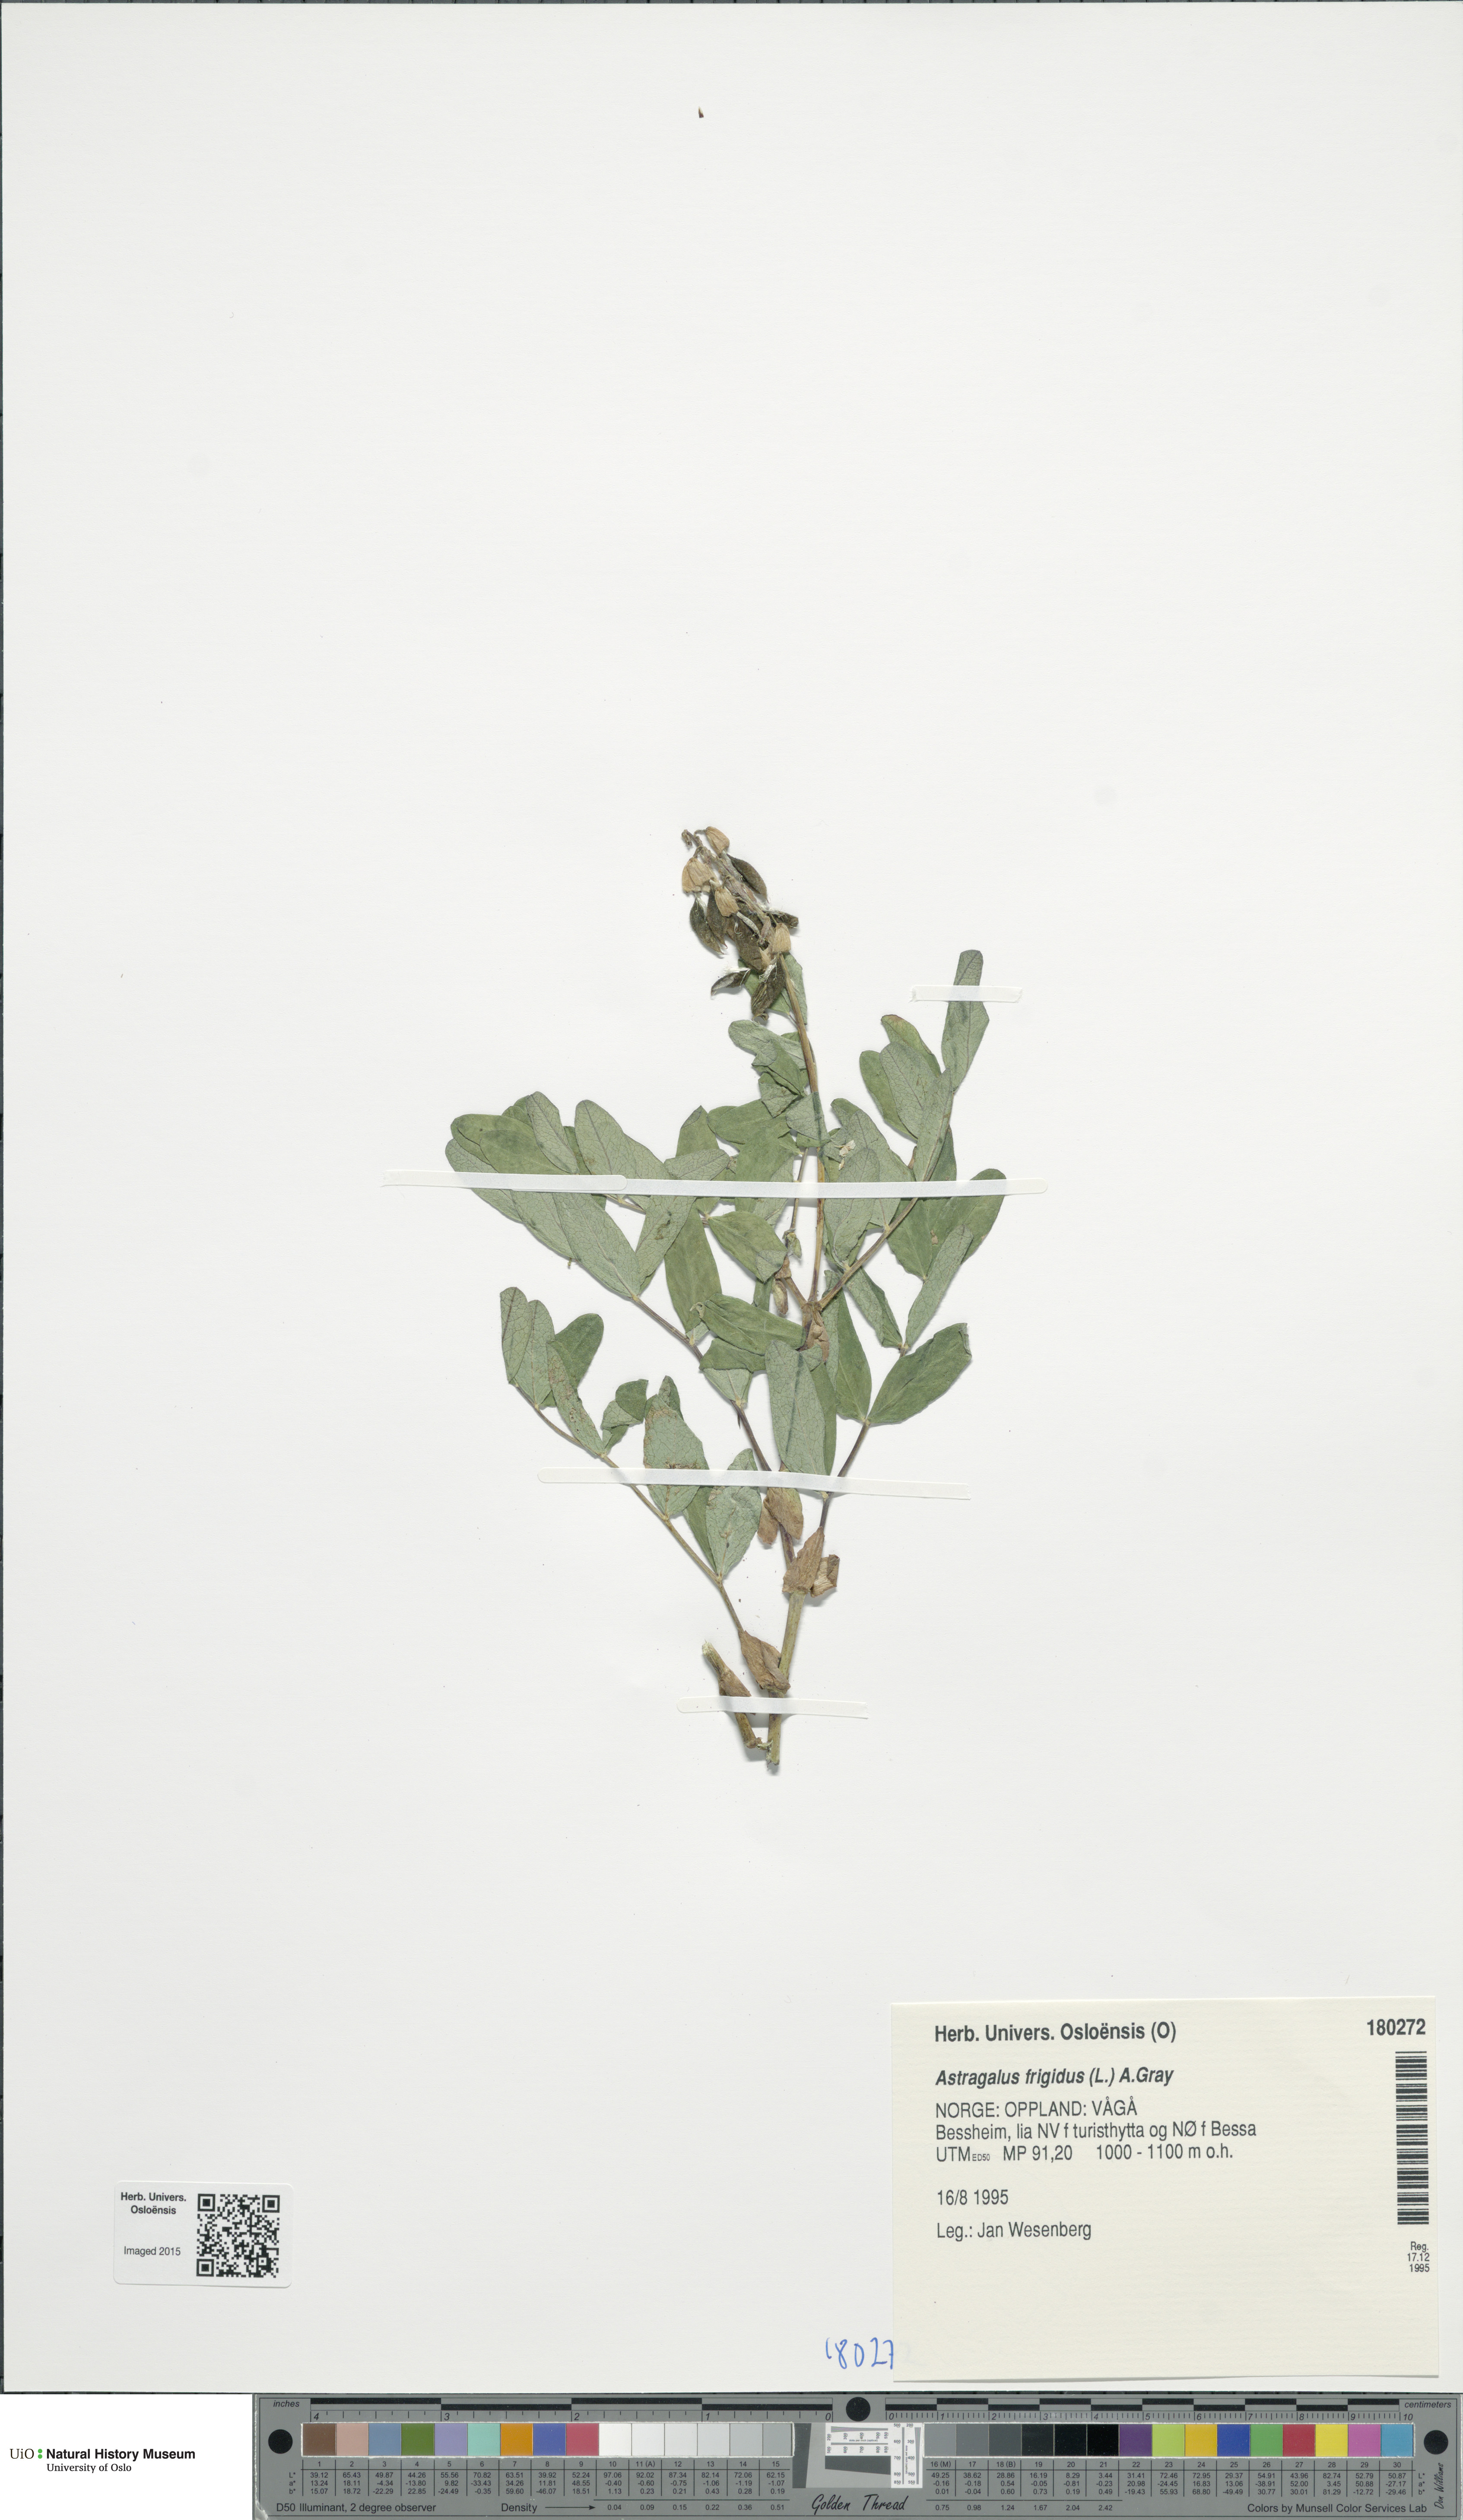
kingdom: Plantae
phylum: Tracheophyta
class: Magnoliopsida
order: Fabales
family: Fabaceae
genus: Astragalus
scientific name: Astragalus frigidus
